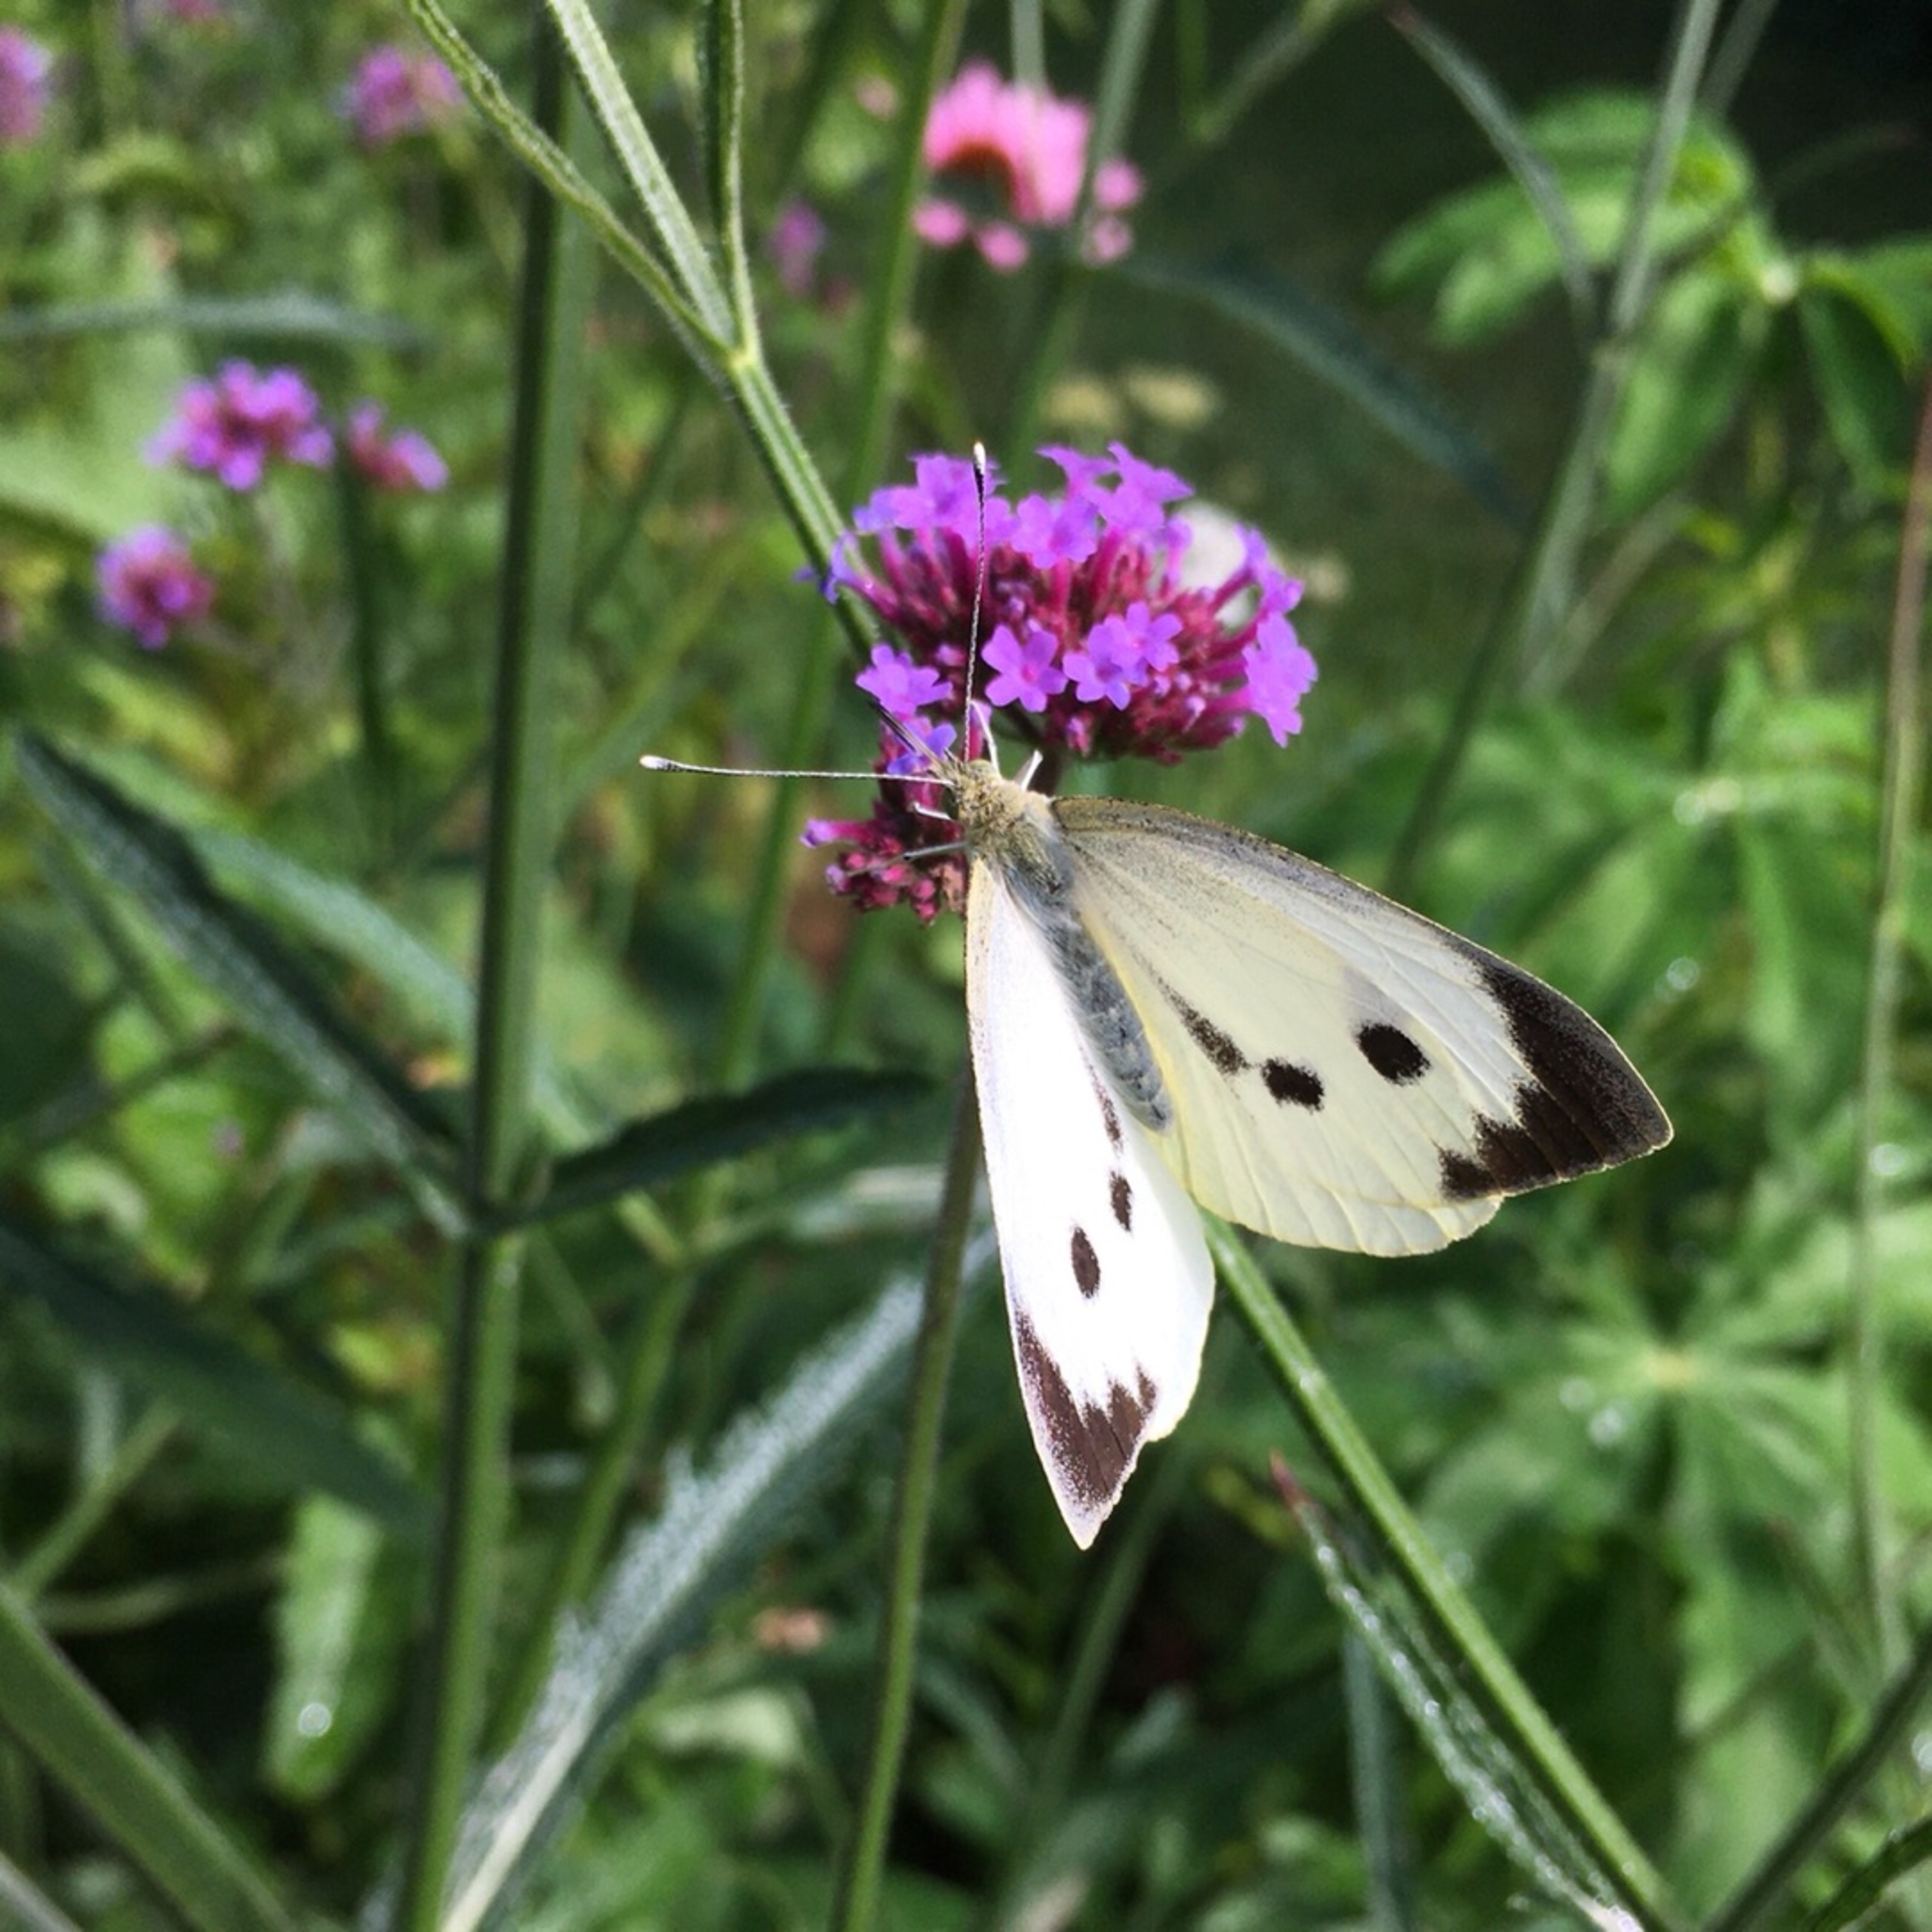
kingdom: Animalia
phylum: Arthropoda
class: Insecta
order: Lepidoptera
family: Pieridae
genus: Pieris
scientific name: Pieris brassicae
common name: Stor kålsommerfugl
